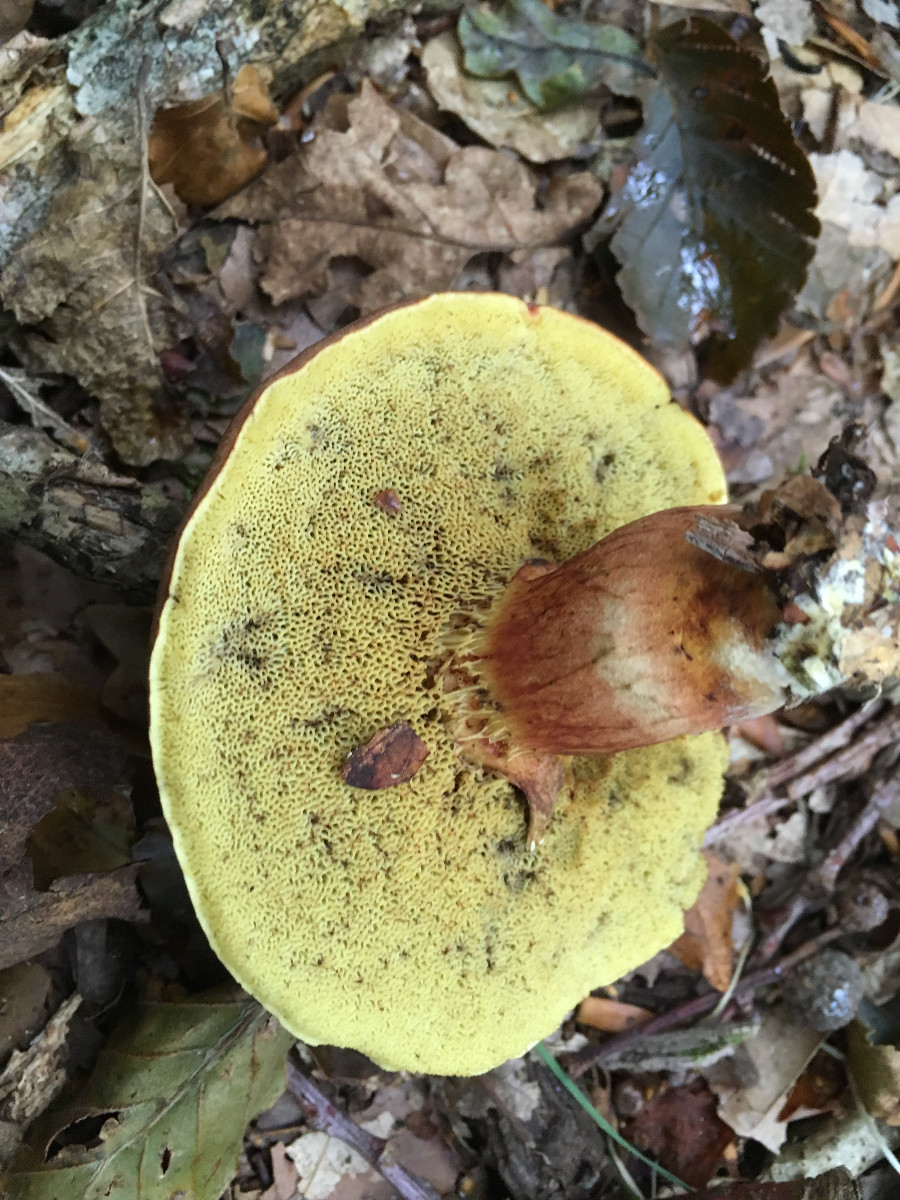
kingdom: Fungi
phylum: Basidiomycota
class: Agaricomycetes
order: Boletales
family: Boletaceae
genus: Xerocomellus
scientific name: Xerocomellus
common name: dværgrørhat
